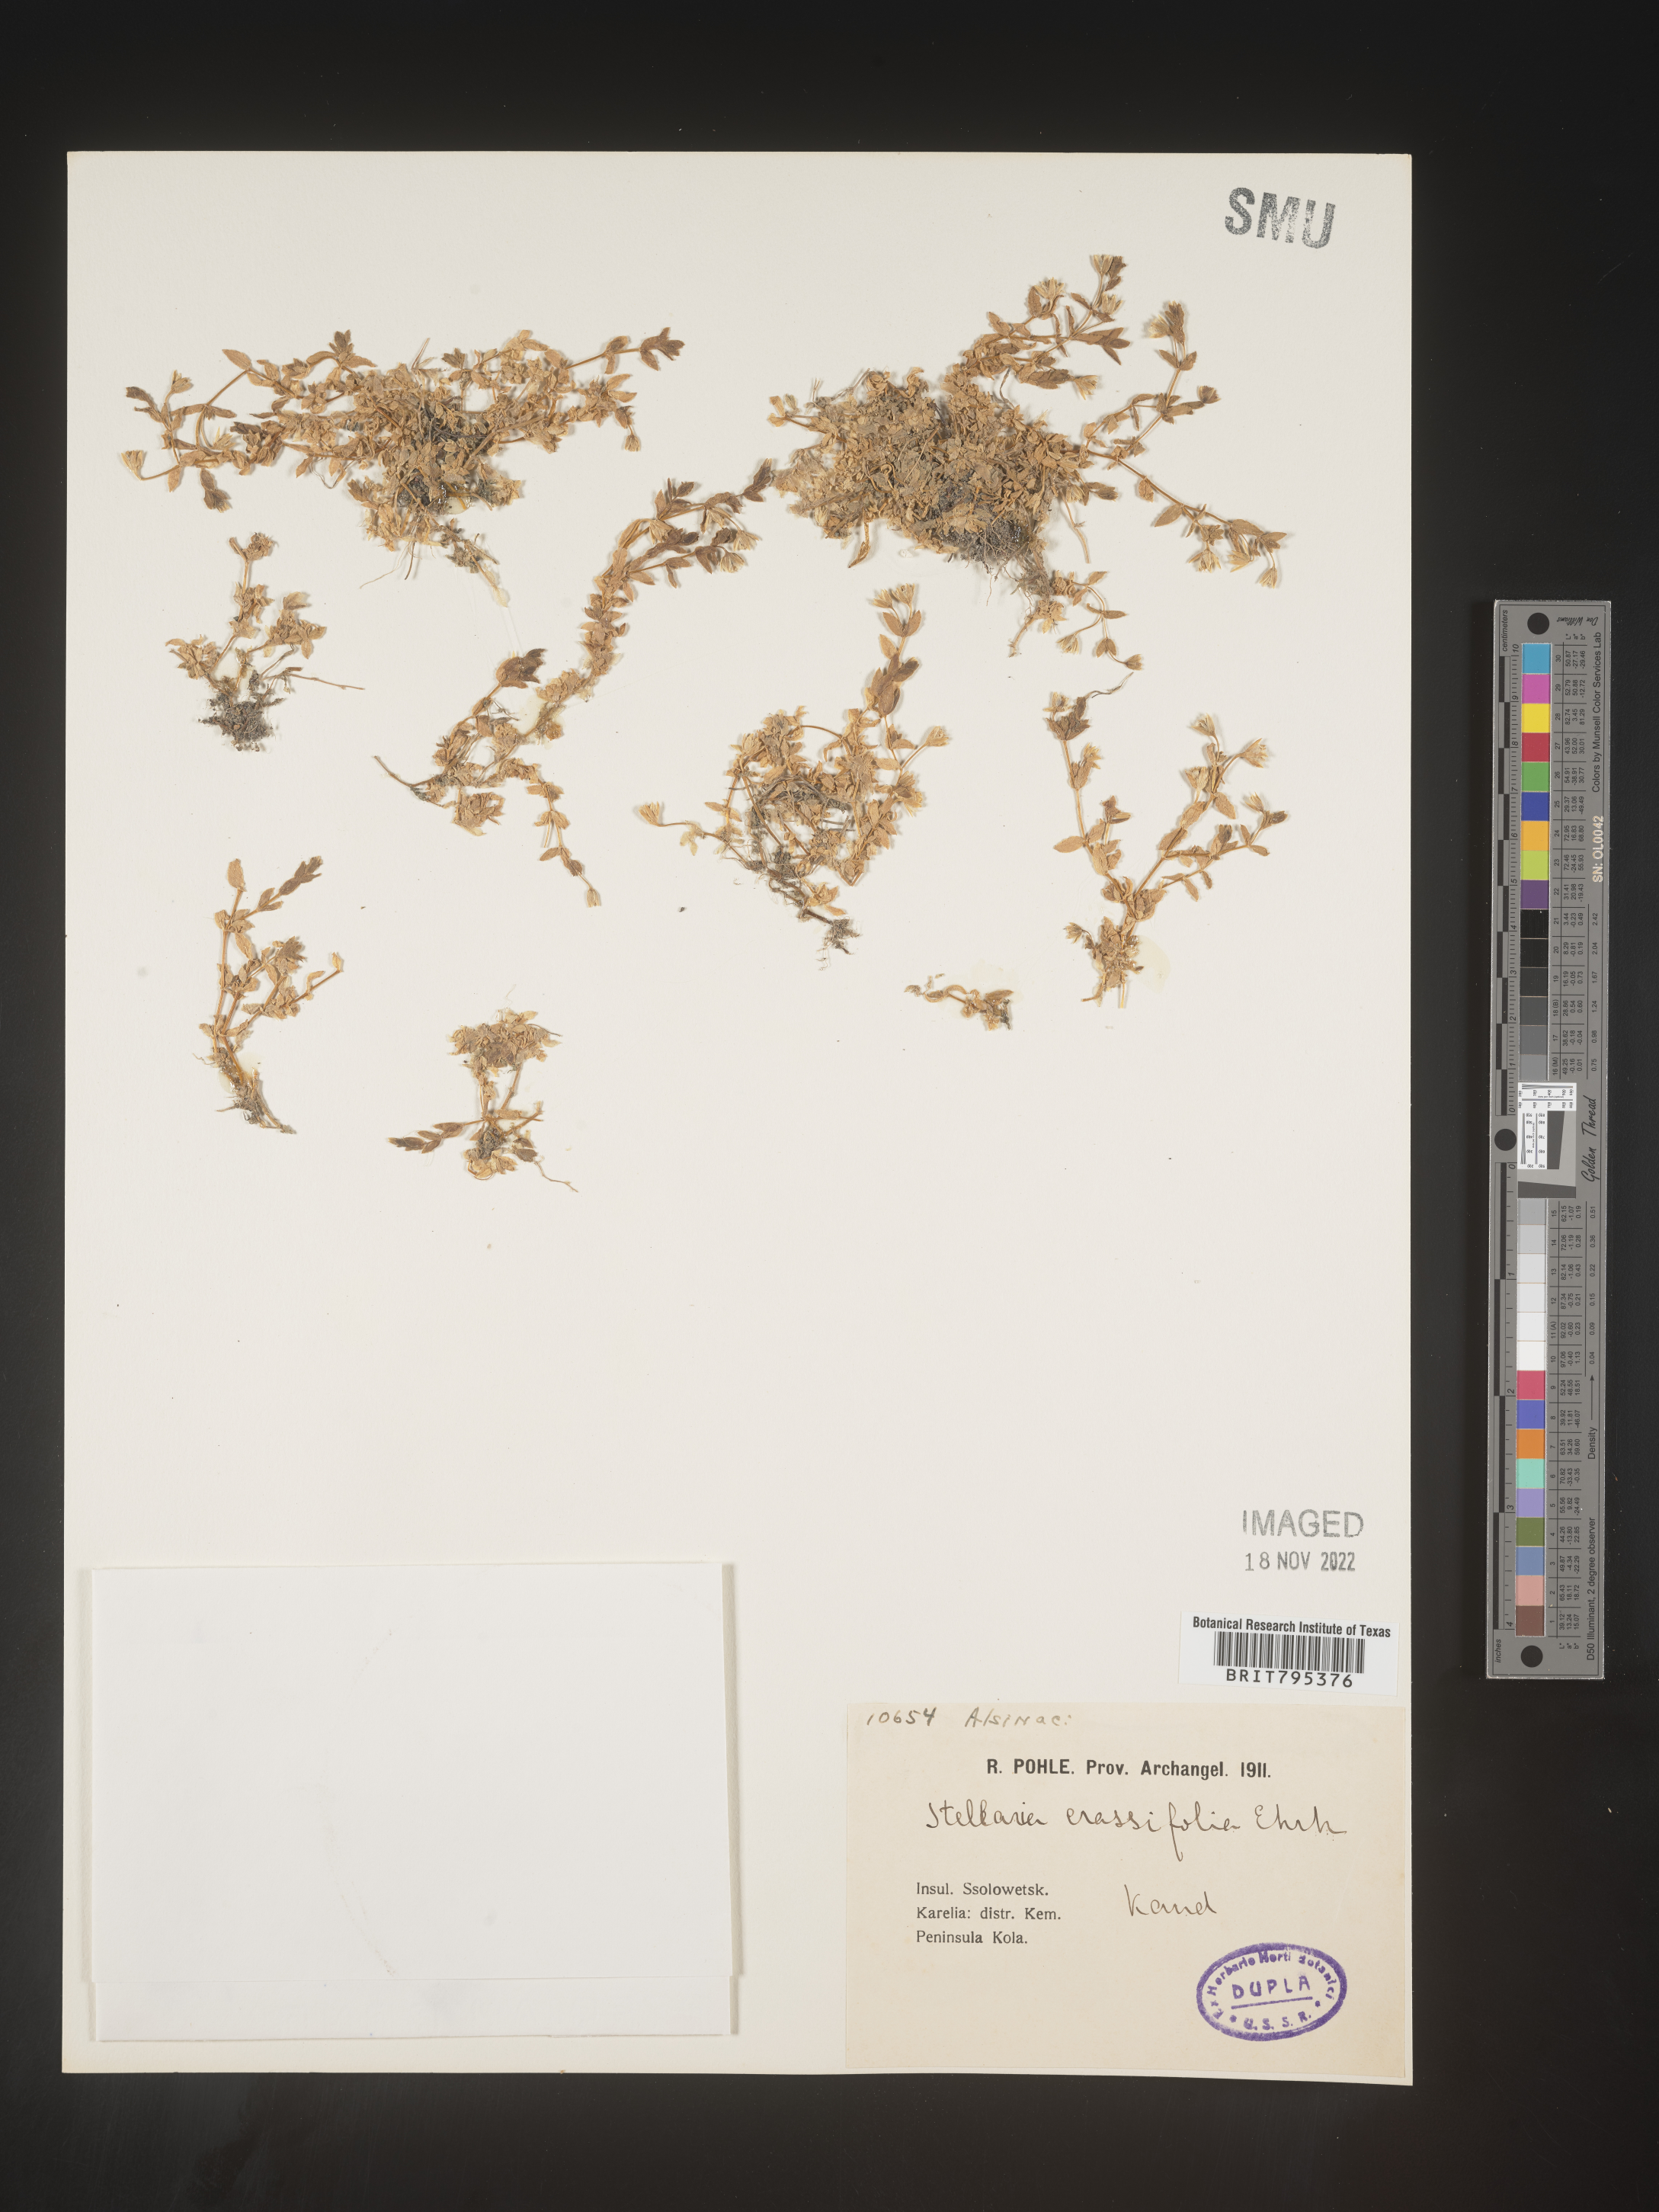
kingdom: Plantae
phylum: Tracheophyta
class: Magnoliopsida
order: Caryophyllales
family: Caryophyllaceae
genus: Stellaria
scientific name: Stellaria
